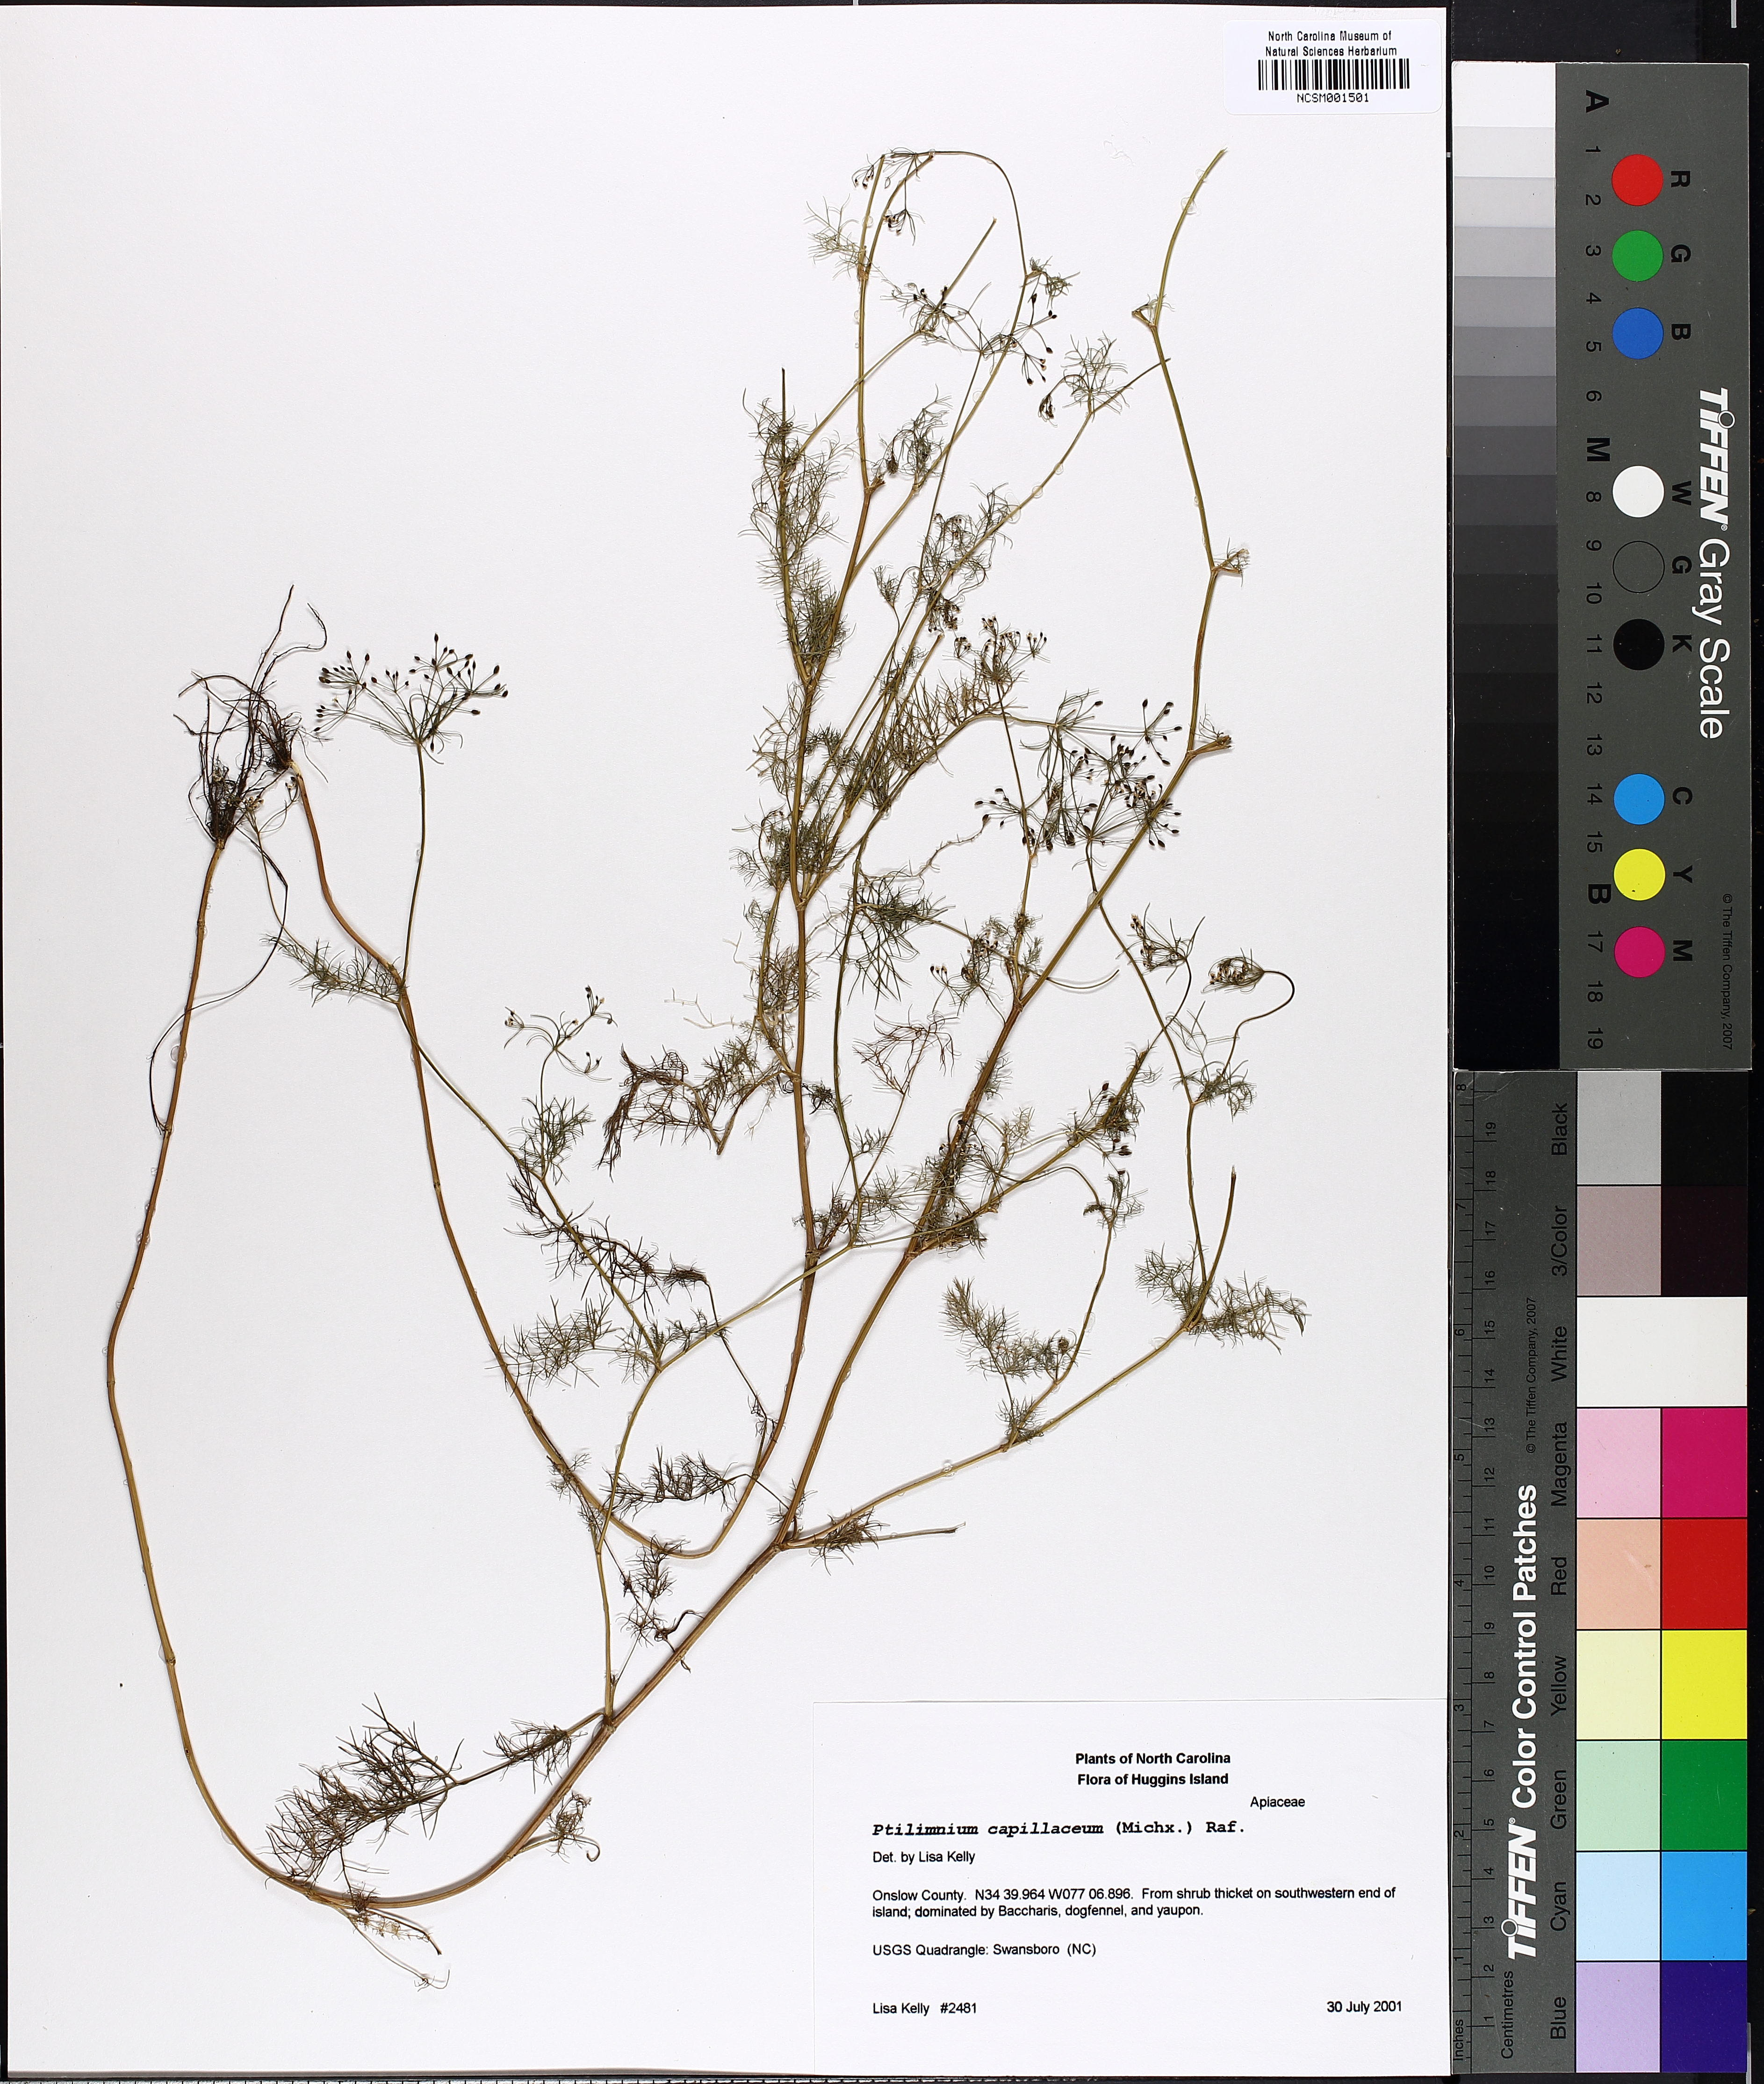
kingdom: Plantae
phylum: Tracheophyta
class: Magnoliopsida
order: Apiales
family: Apiaceae
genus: Ptilimnium
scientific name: Ptilimnium capillaceum
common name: Herbwilliam
